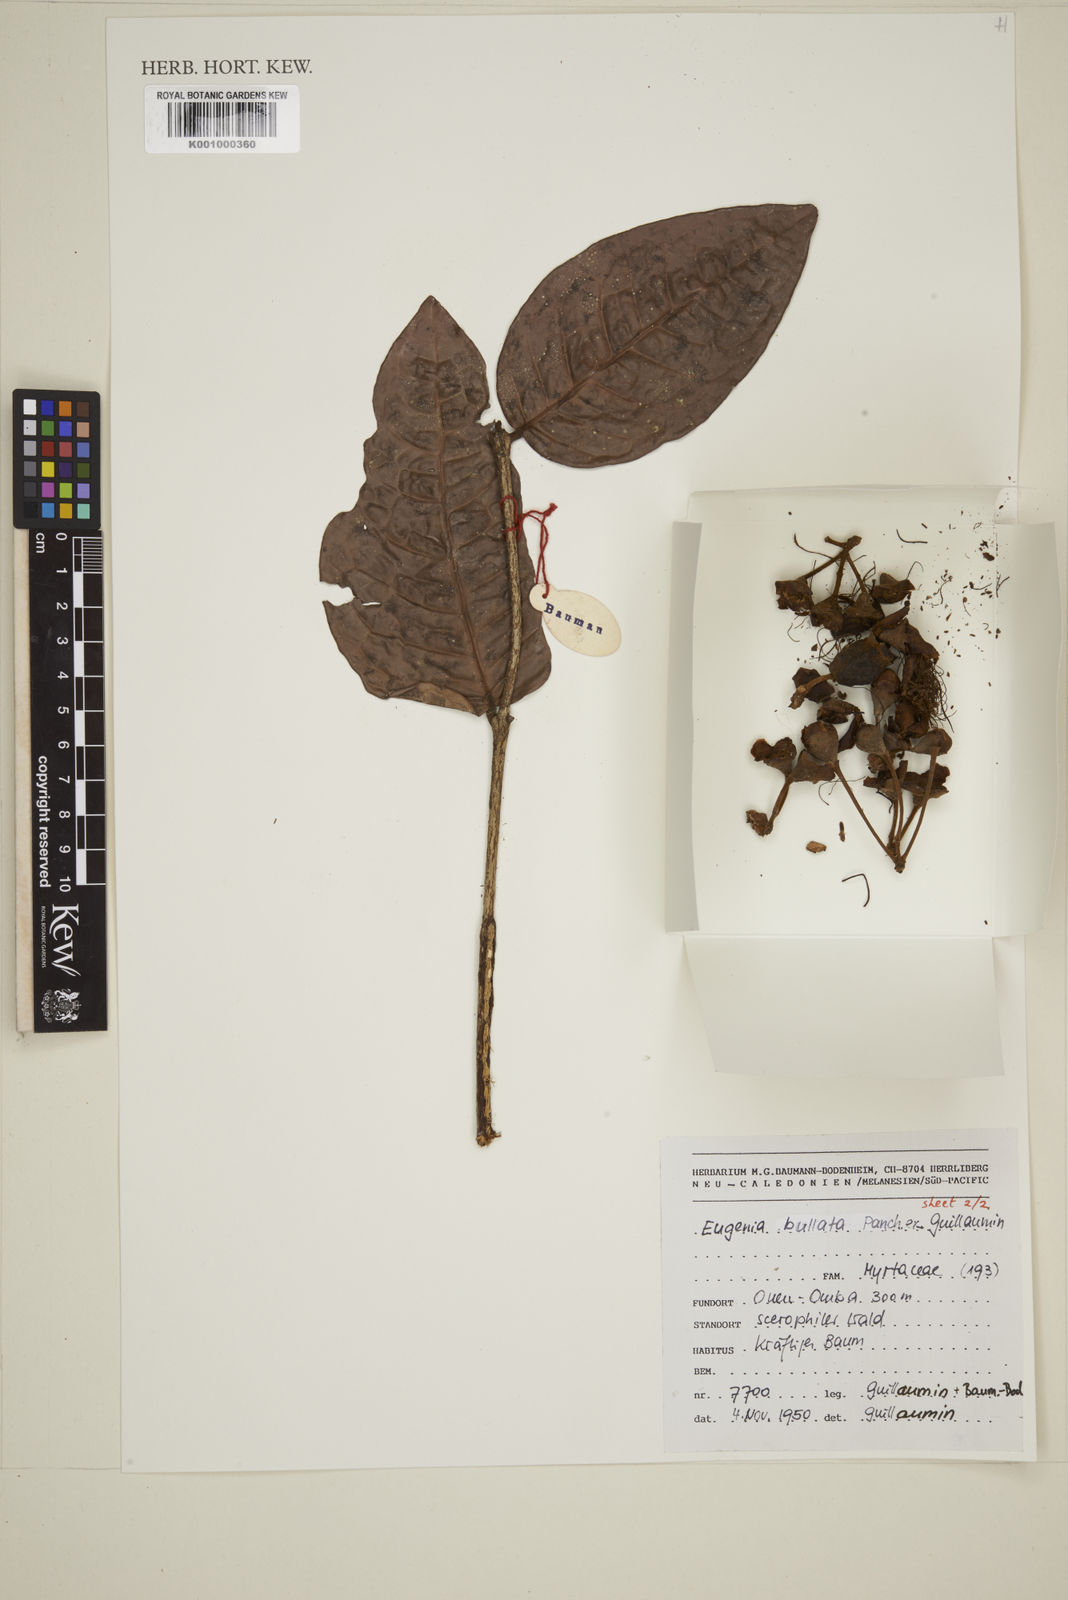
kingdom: Plantae
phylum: Tracheophyta
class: Magnoliopsida
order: Myrtales
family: Myrtaceae
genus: Eugenia
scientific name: Eugenia
